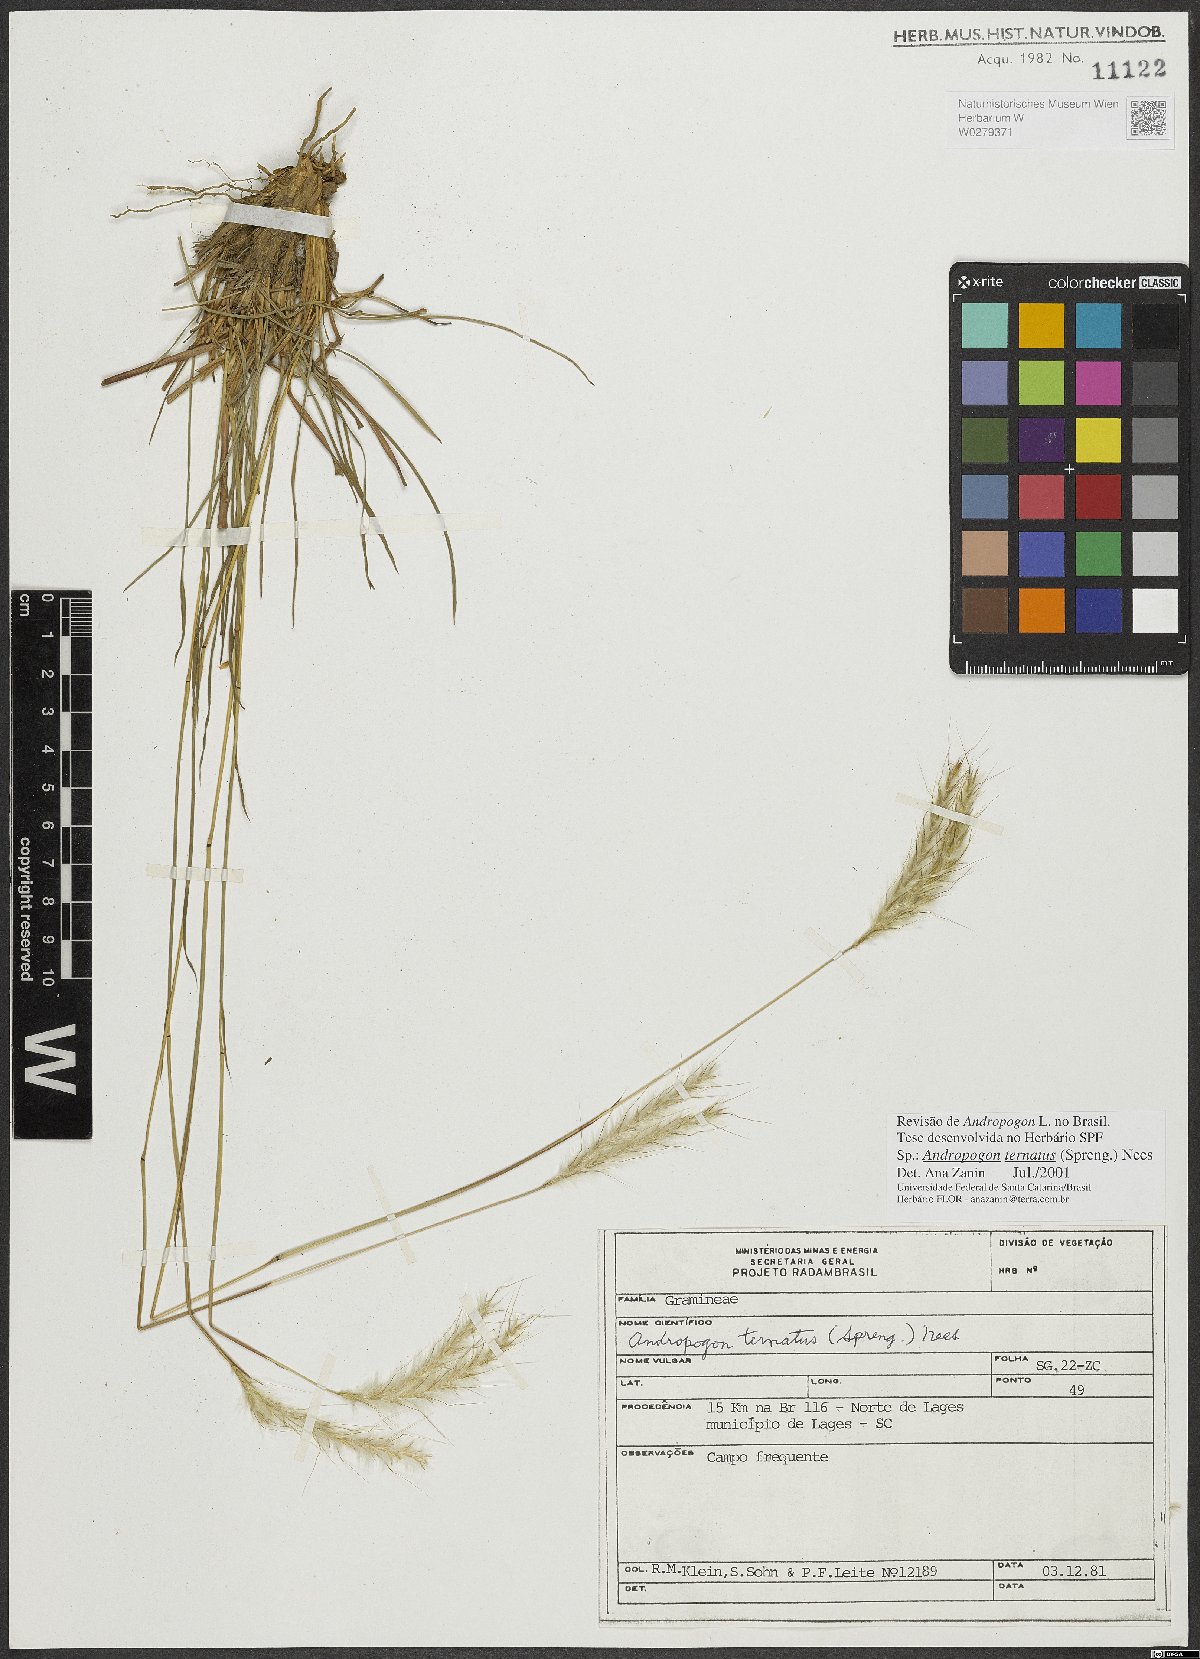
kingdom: Plantae
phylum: Tracheophyta
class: Liliopsida
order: Poales
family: Poaceae
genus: Andropogon
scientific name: Andropogon ternatus
